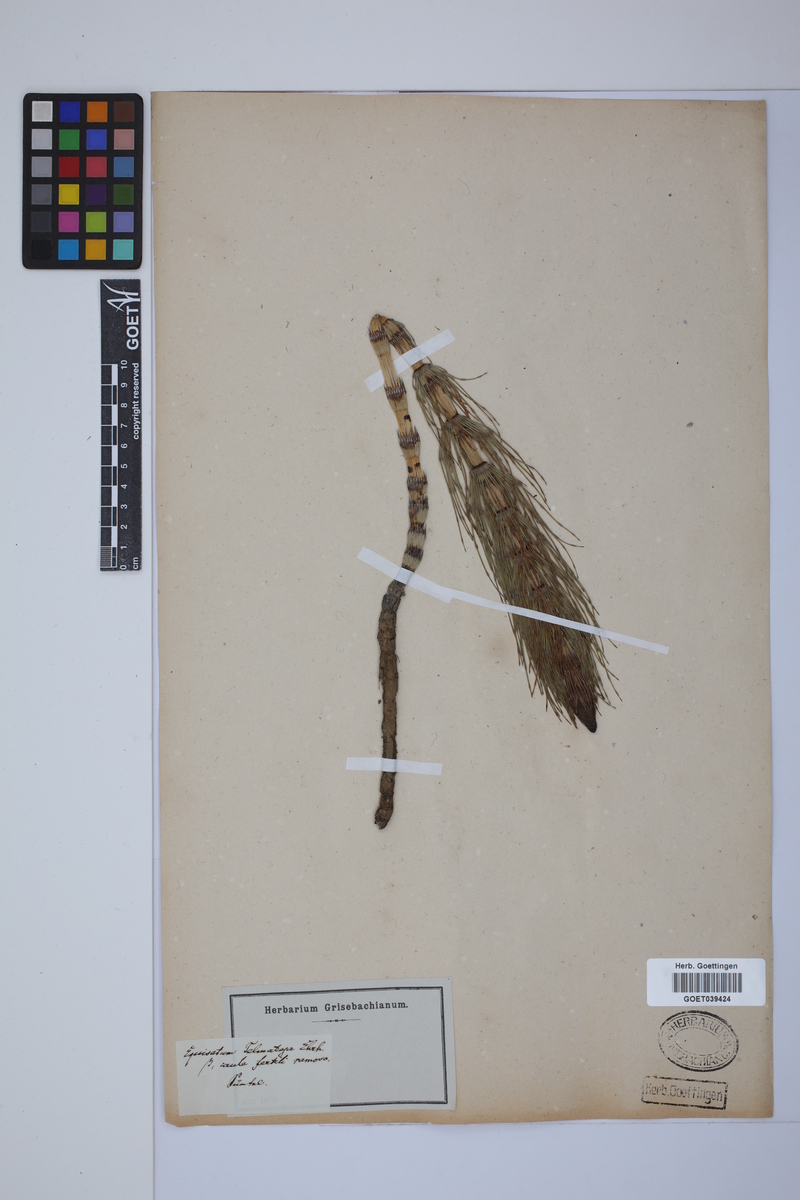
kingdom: Plantae
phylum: Tracheophyta
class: Polypodiopsida
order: Equisetales
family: Equisetaceae
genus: Equisetum
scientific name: Equisetum telmateia
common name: Great horsetail
